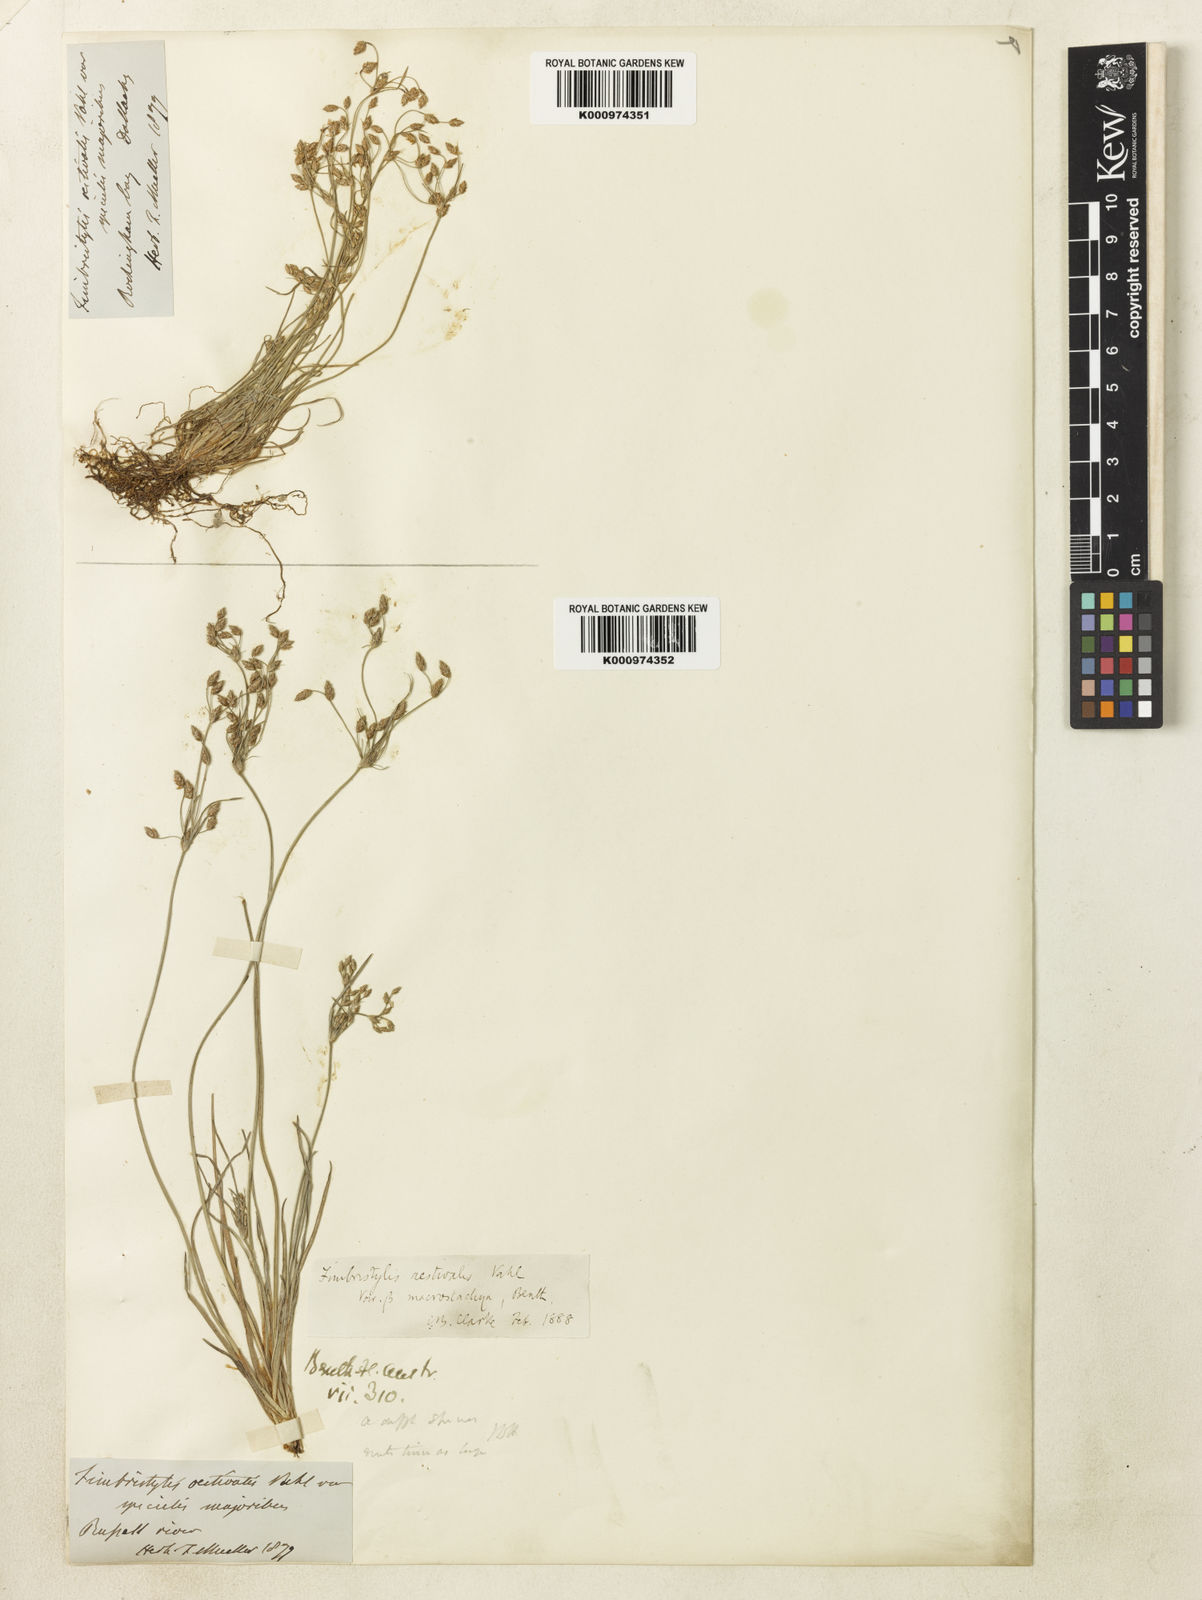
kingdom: Plantae
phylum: Tracheophyta
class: Liliopsida
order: Poales
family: Cyperaceae
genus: Fimbristylis
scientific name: Fimbristylis aestivalis
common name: Summer fimbry
